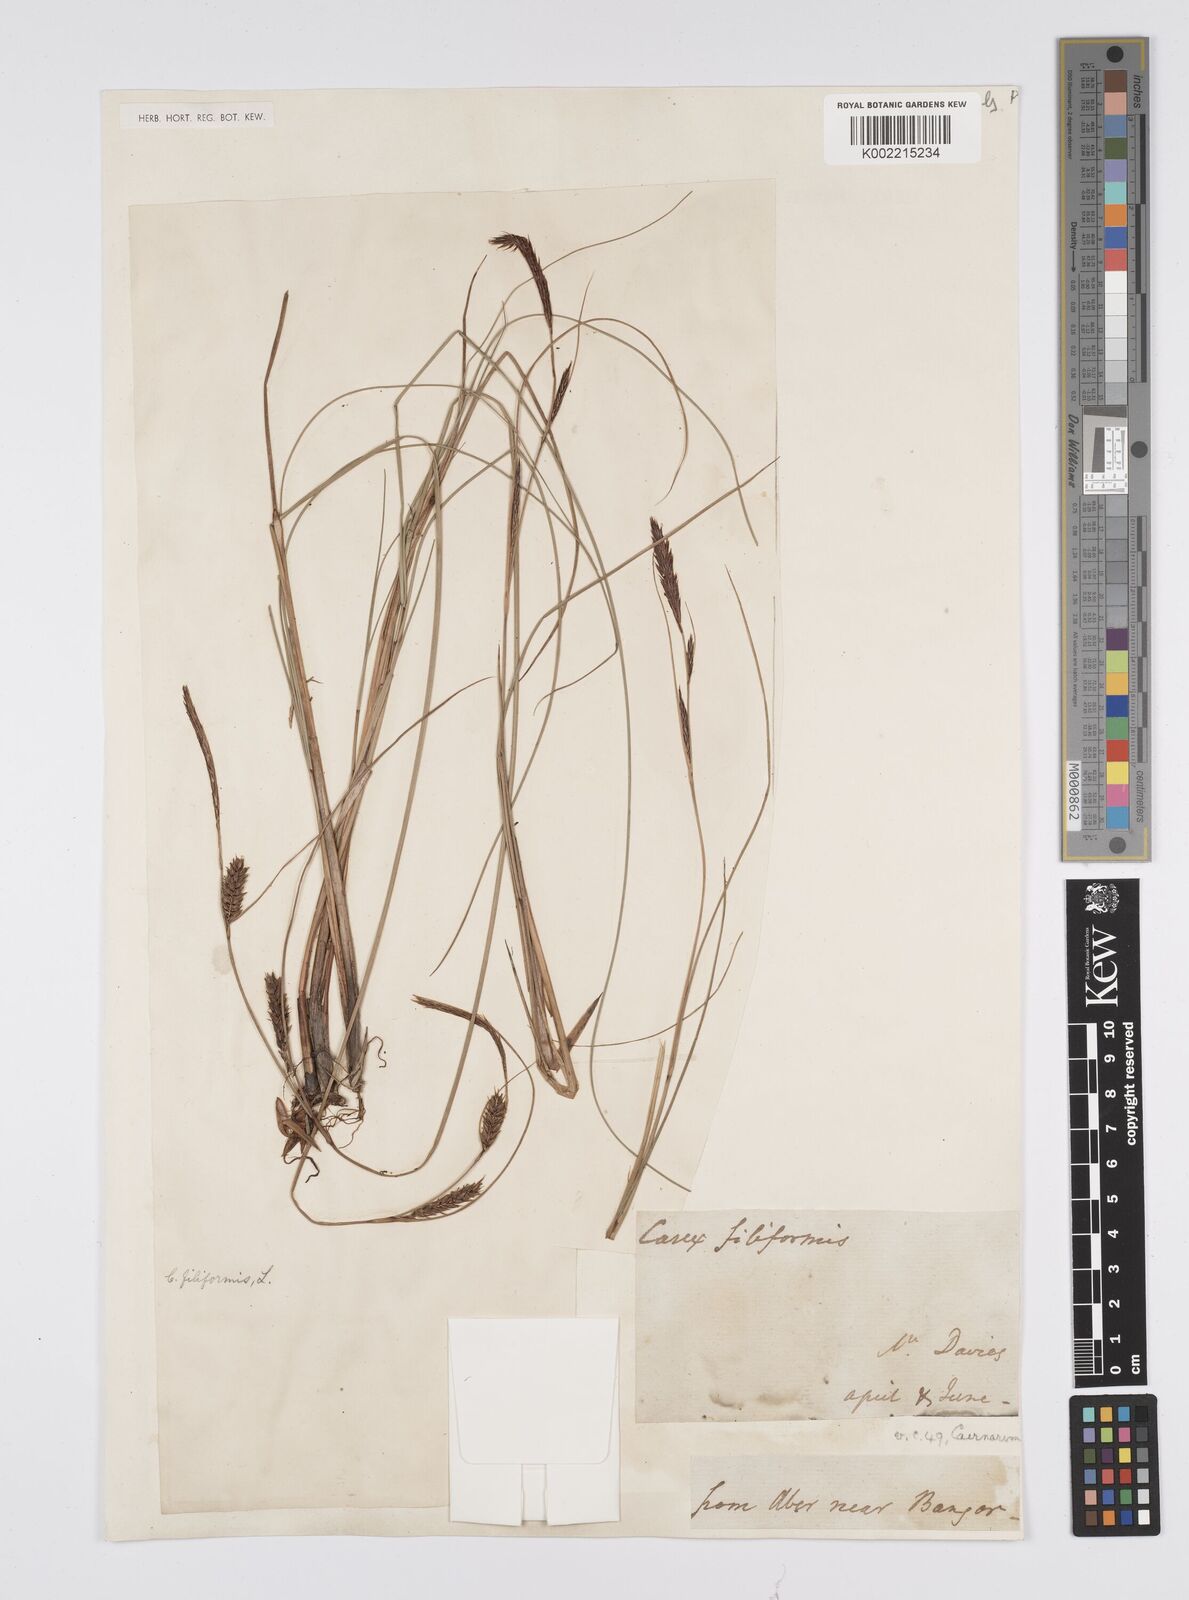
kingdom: Plantae
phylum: Tracheophyta
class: Liliopsida
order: Poales
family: Cyperaceae
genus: Carex
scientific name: Carex lasiocarpa
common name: Slender sedge
